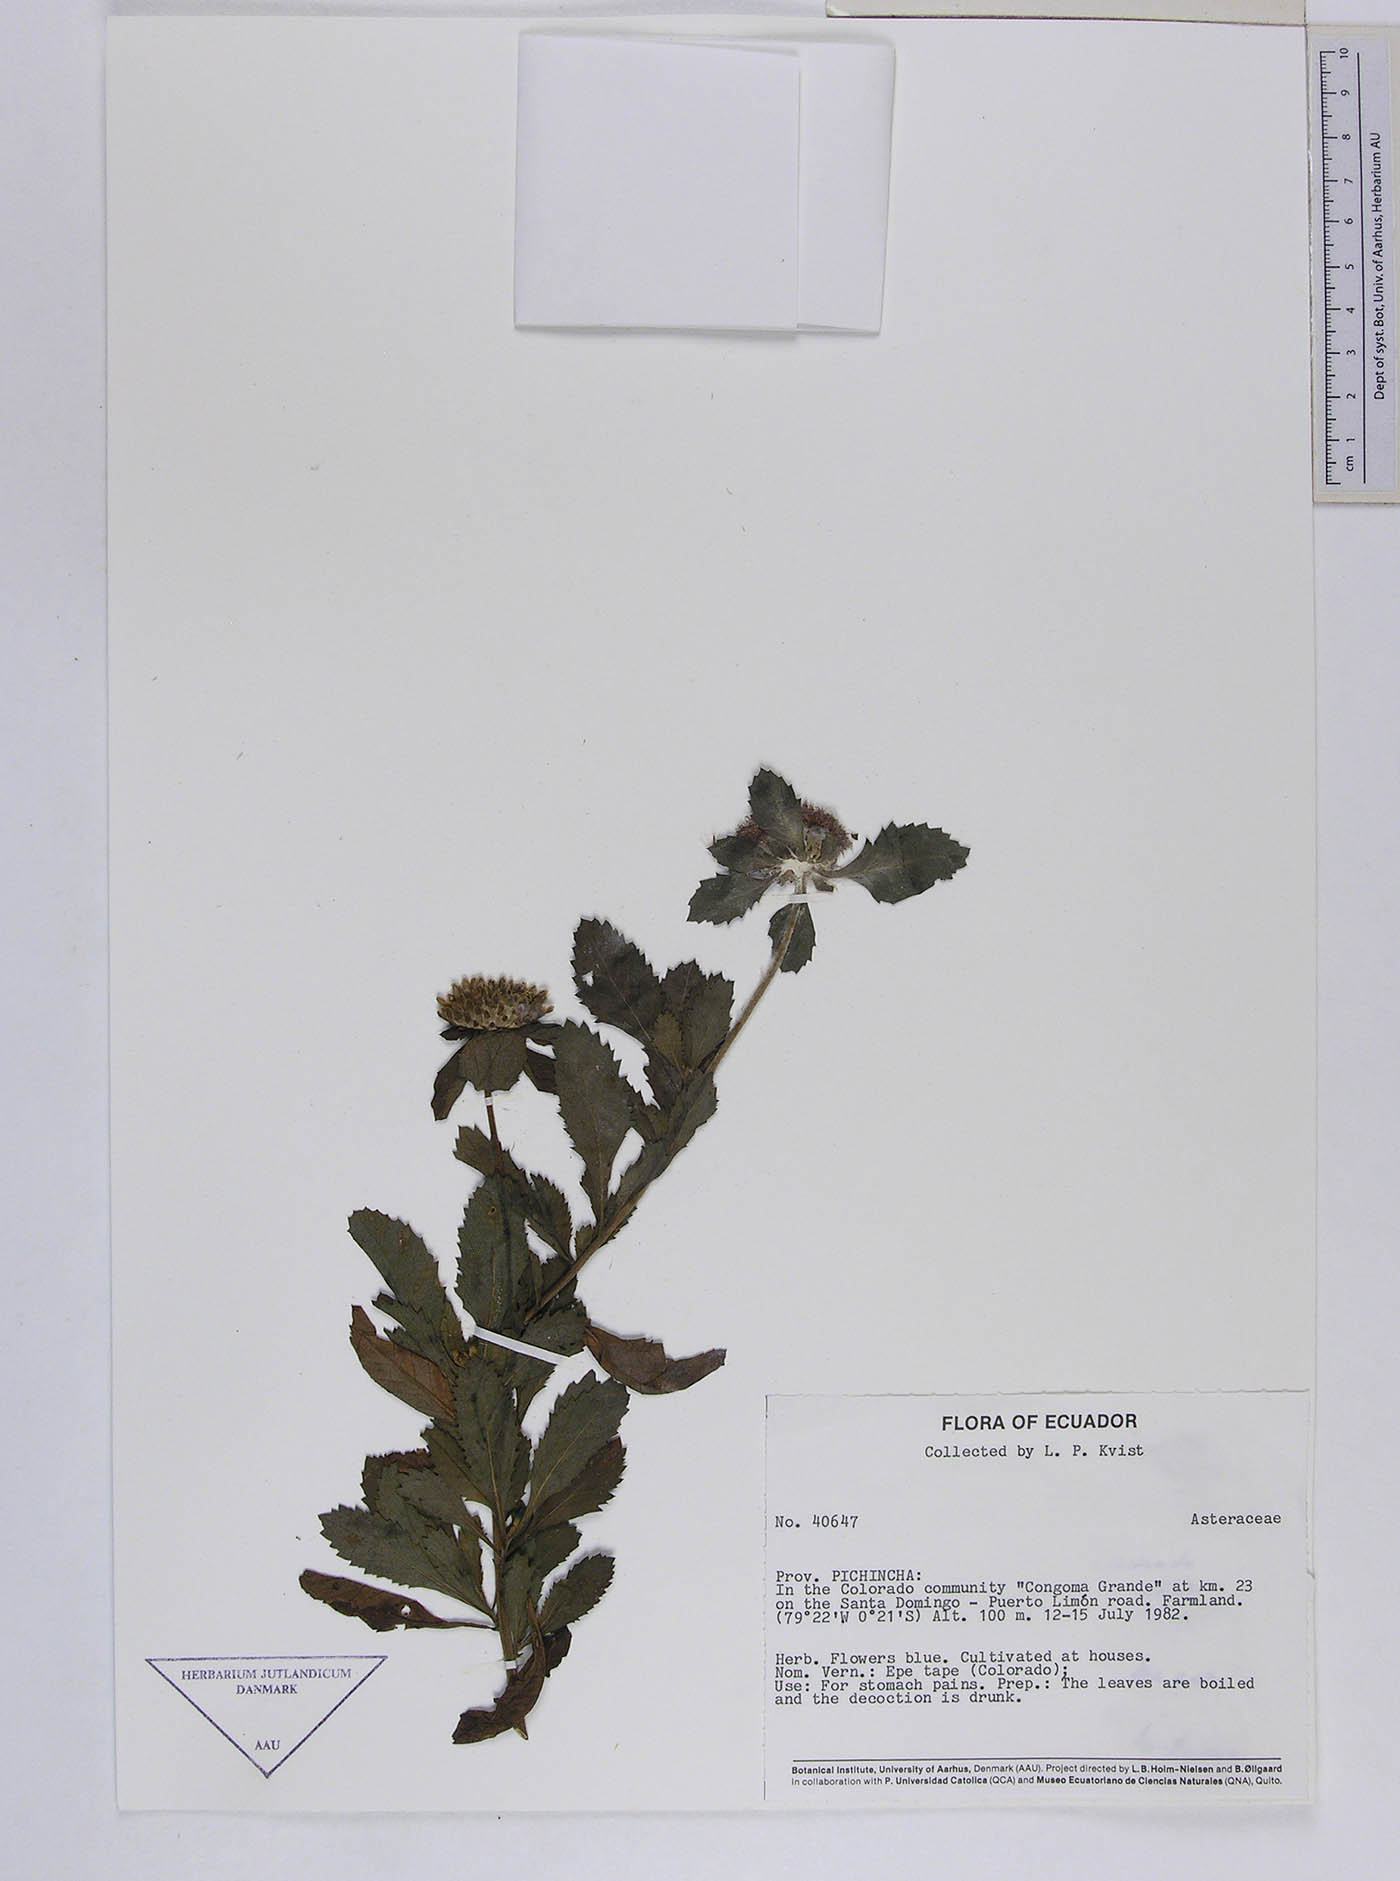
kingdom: Plantae
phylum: Tracheophyta
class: Magnoliopsida
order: Asterales
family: Asteraceae
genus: Centratherum
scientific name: Centratherum punctatum
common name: Larkdaisy
